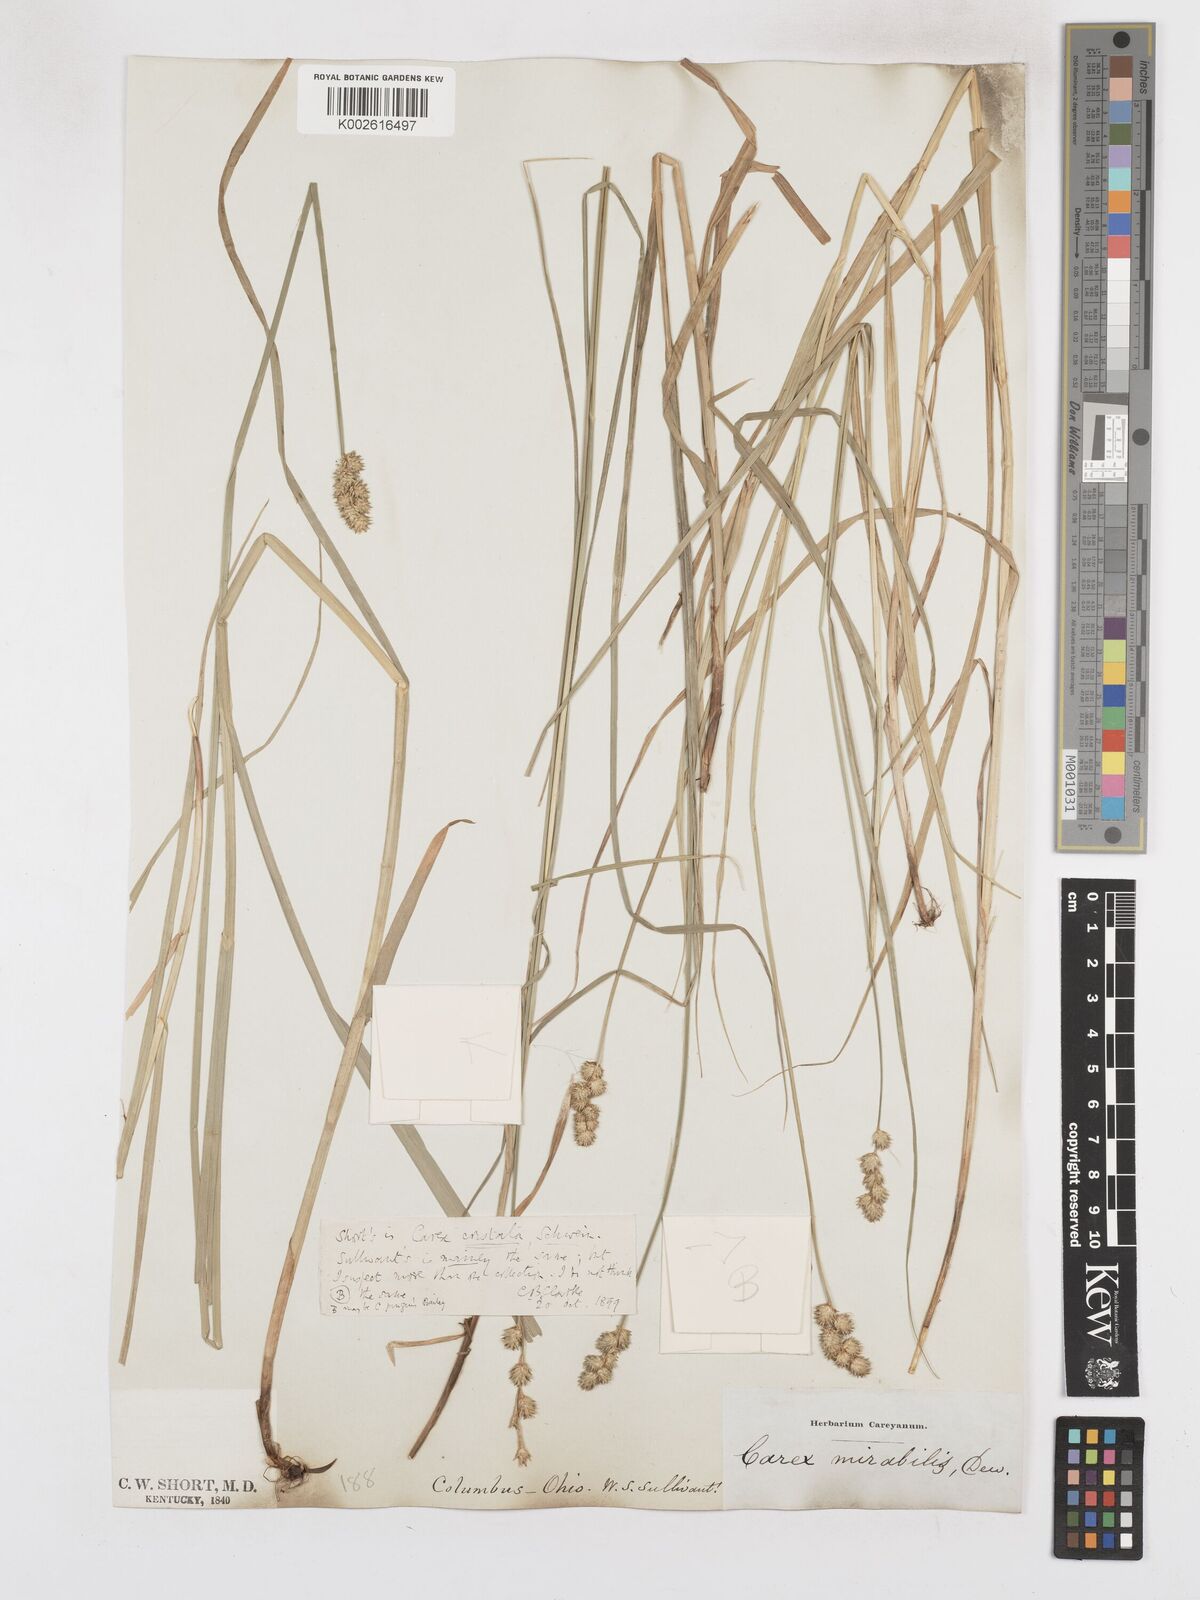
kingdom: Plantae
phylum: Tracheophyta
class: Liliopsida
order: Poales
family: Cyperaceae
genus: Carex
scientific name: Carex cristatella
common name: Crested oval sedge
